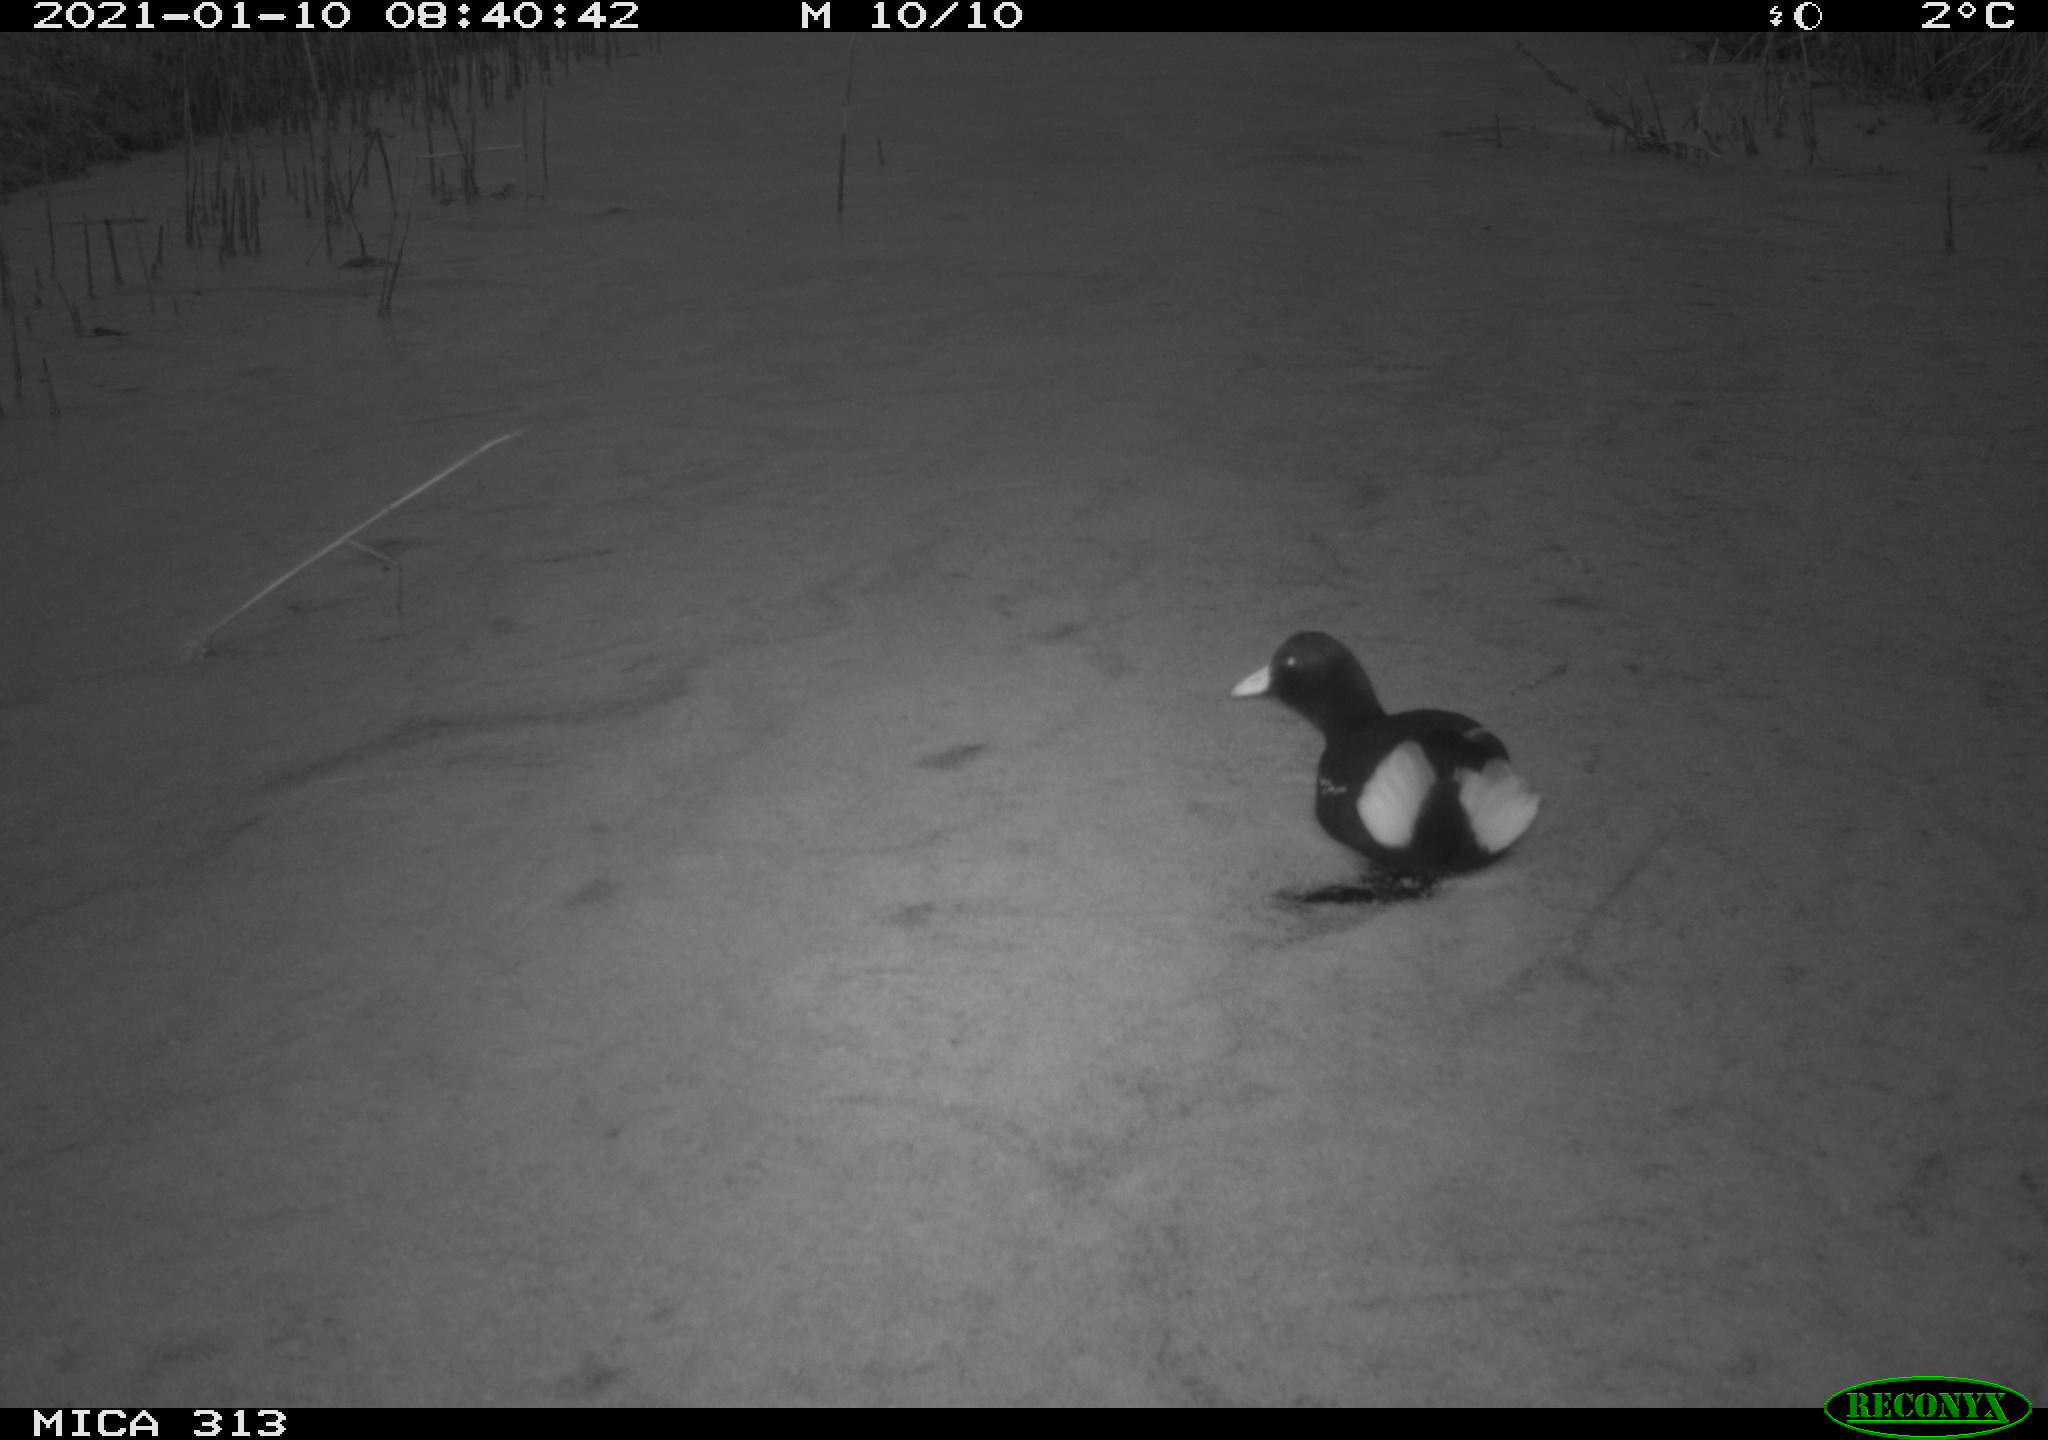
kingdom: Animalia
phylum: Chordata
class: Aves
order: Gruiformes
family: Rallidae
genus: Fulica
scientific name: Fulica atra
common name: Eurasian coot
